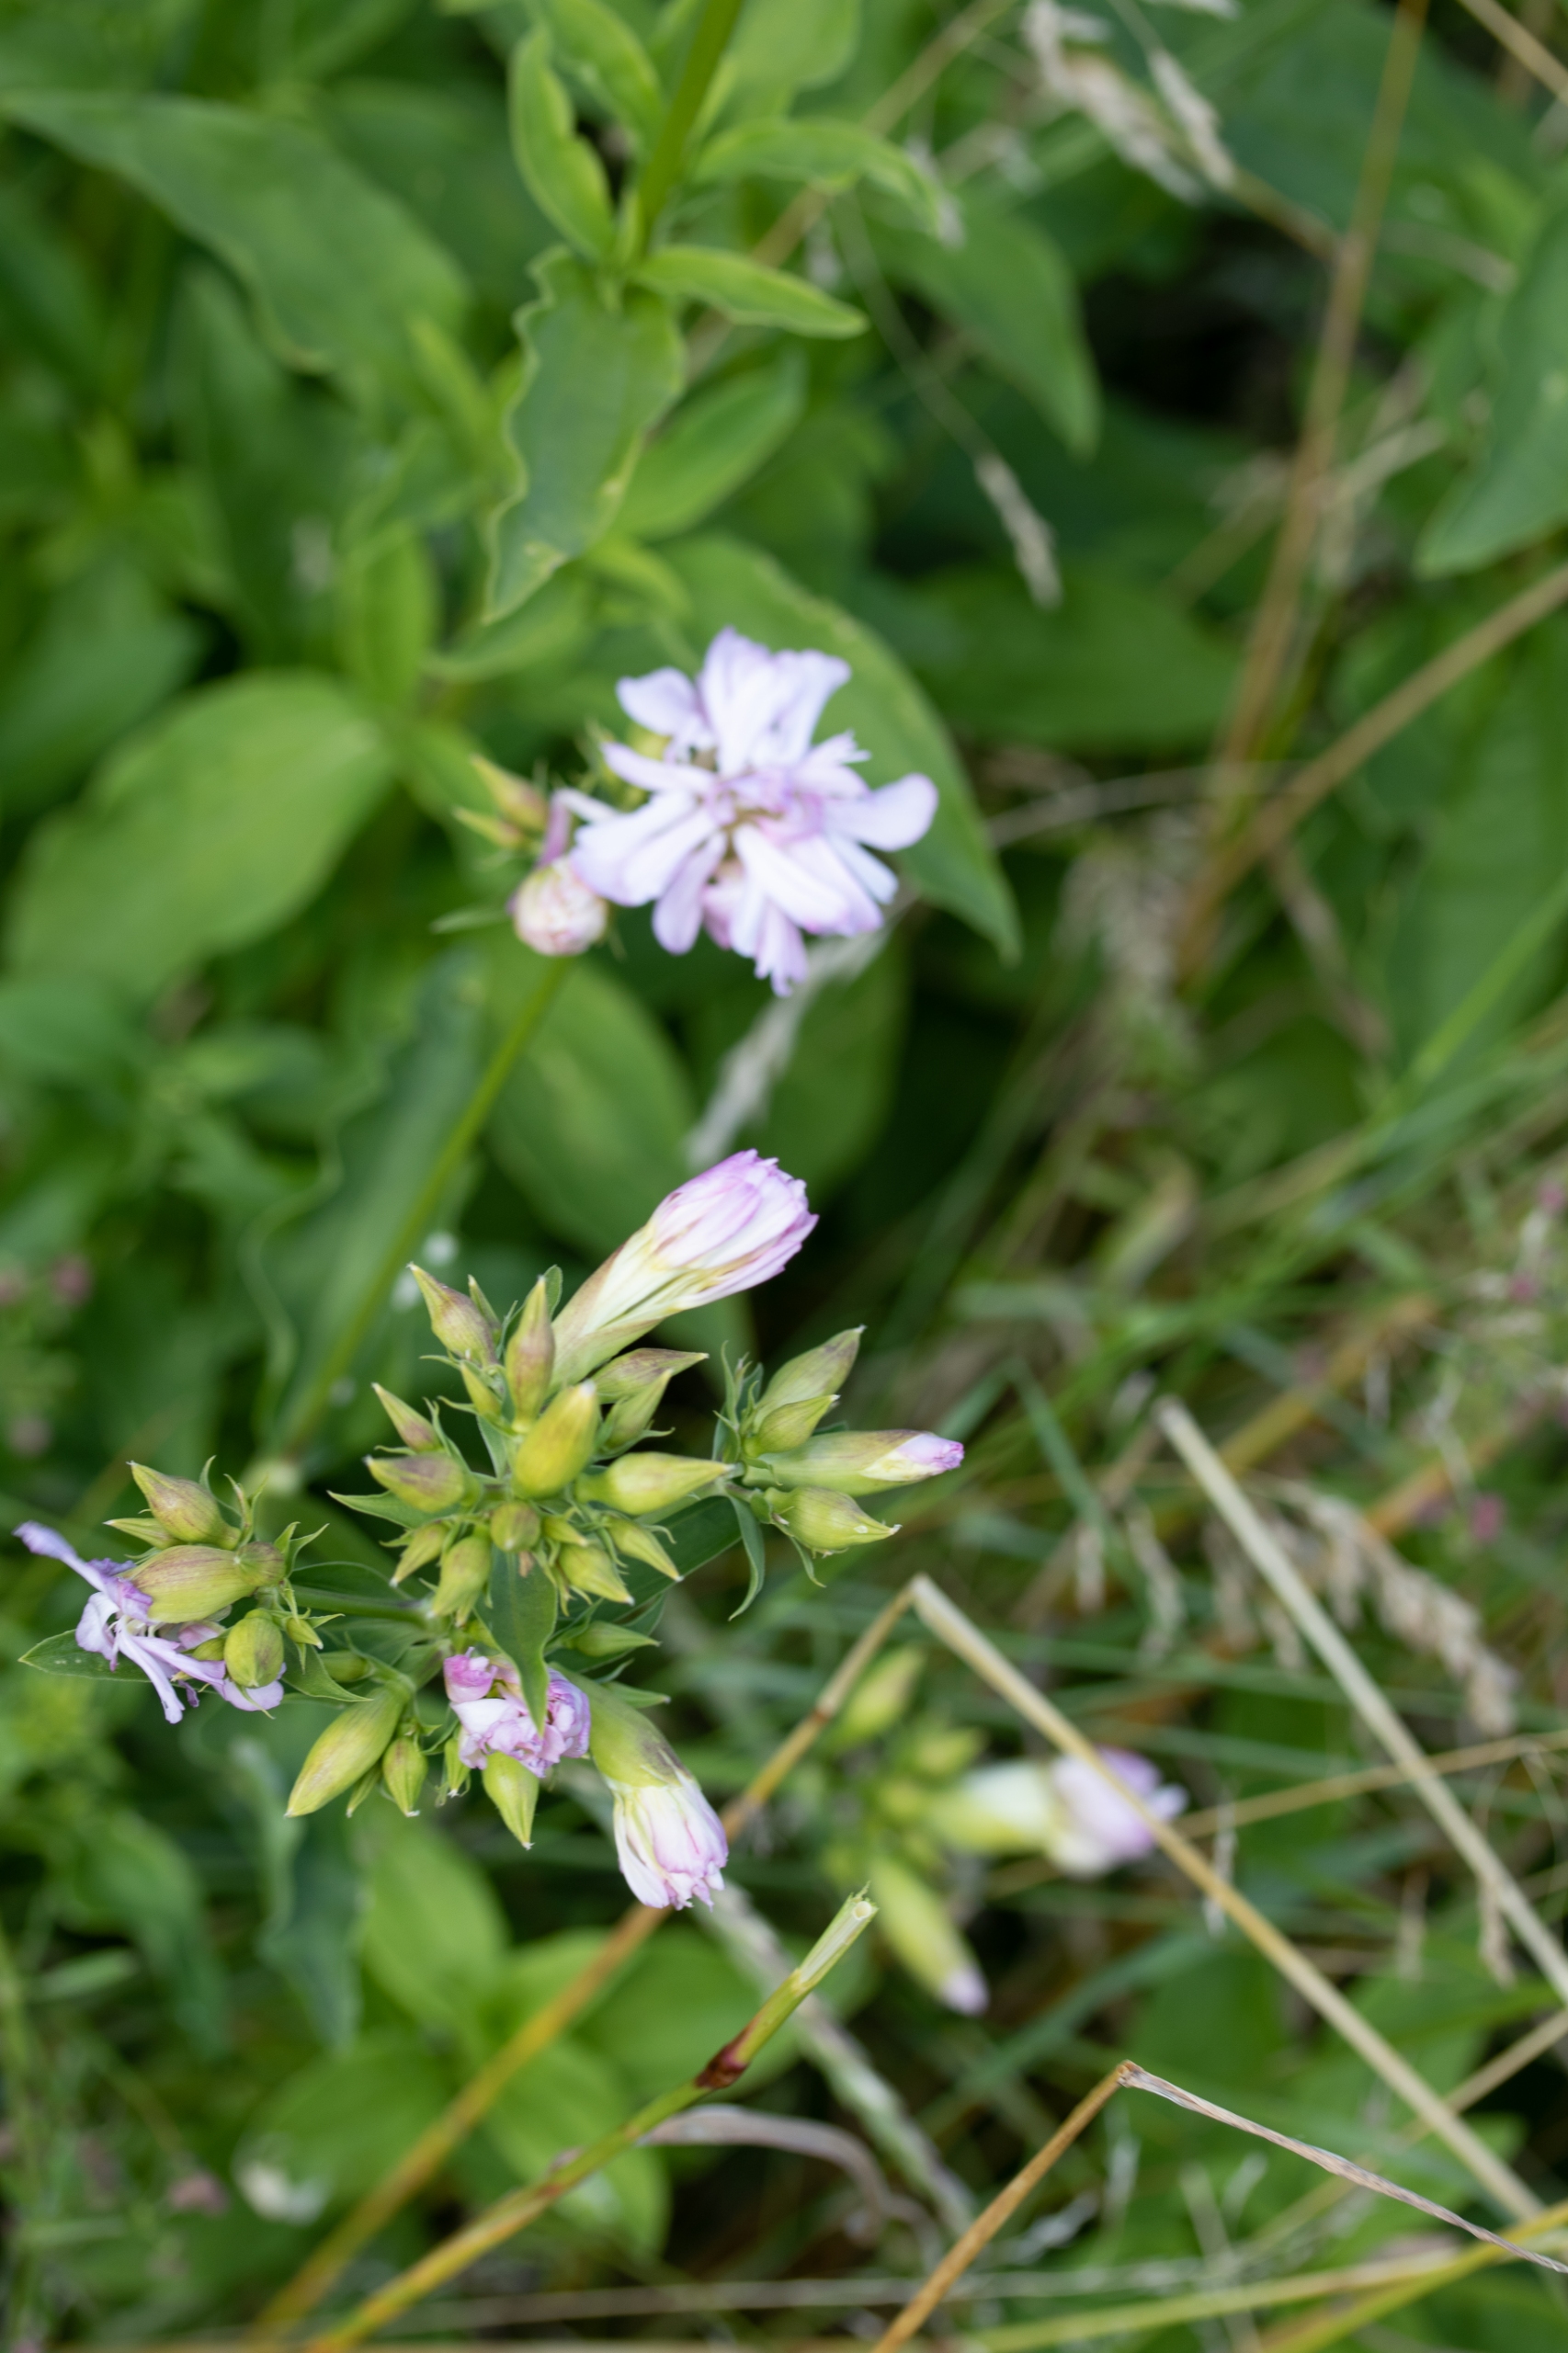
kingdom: Plantae
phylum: Tracheophyta
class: Magnoliopsida
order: Caryophyllales
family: Caryophyllaceae
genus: Saponaria
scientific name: Saponaria officinalis
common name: Sæbeurt
